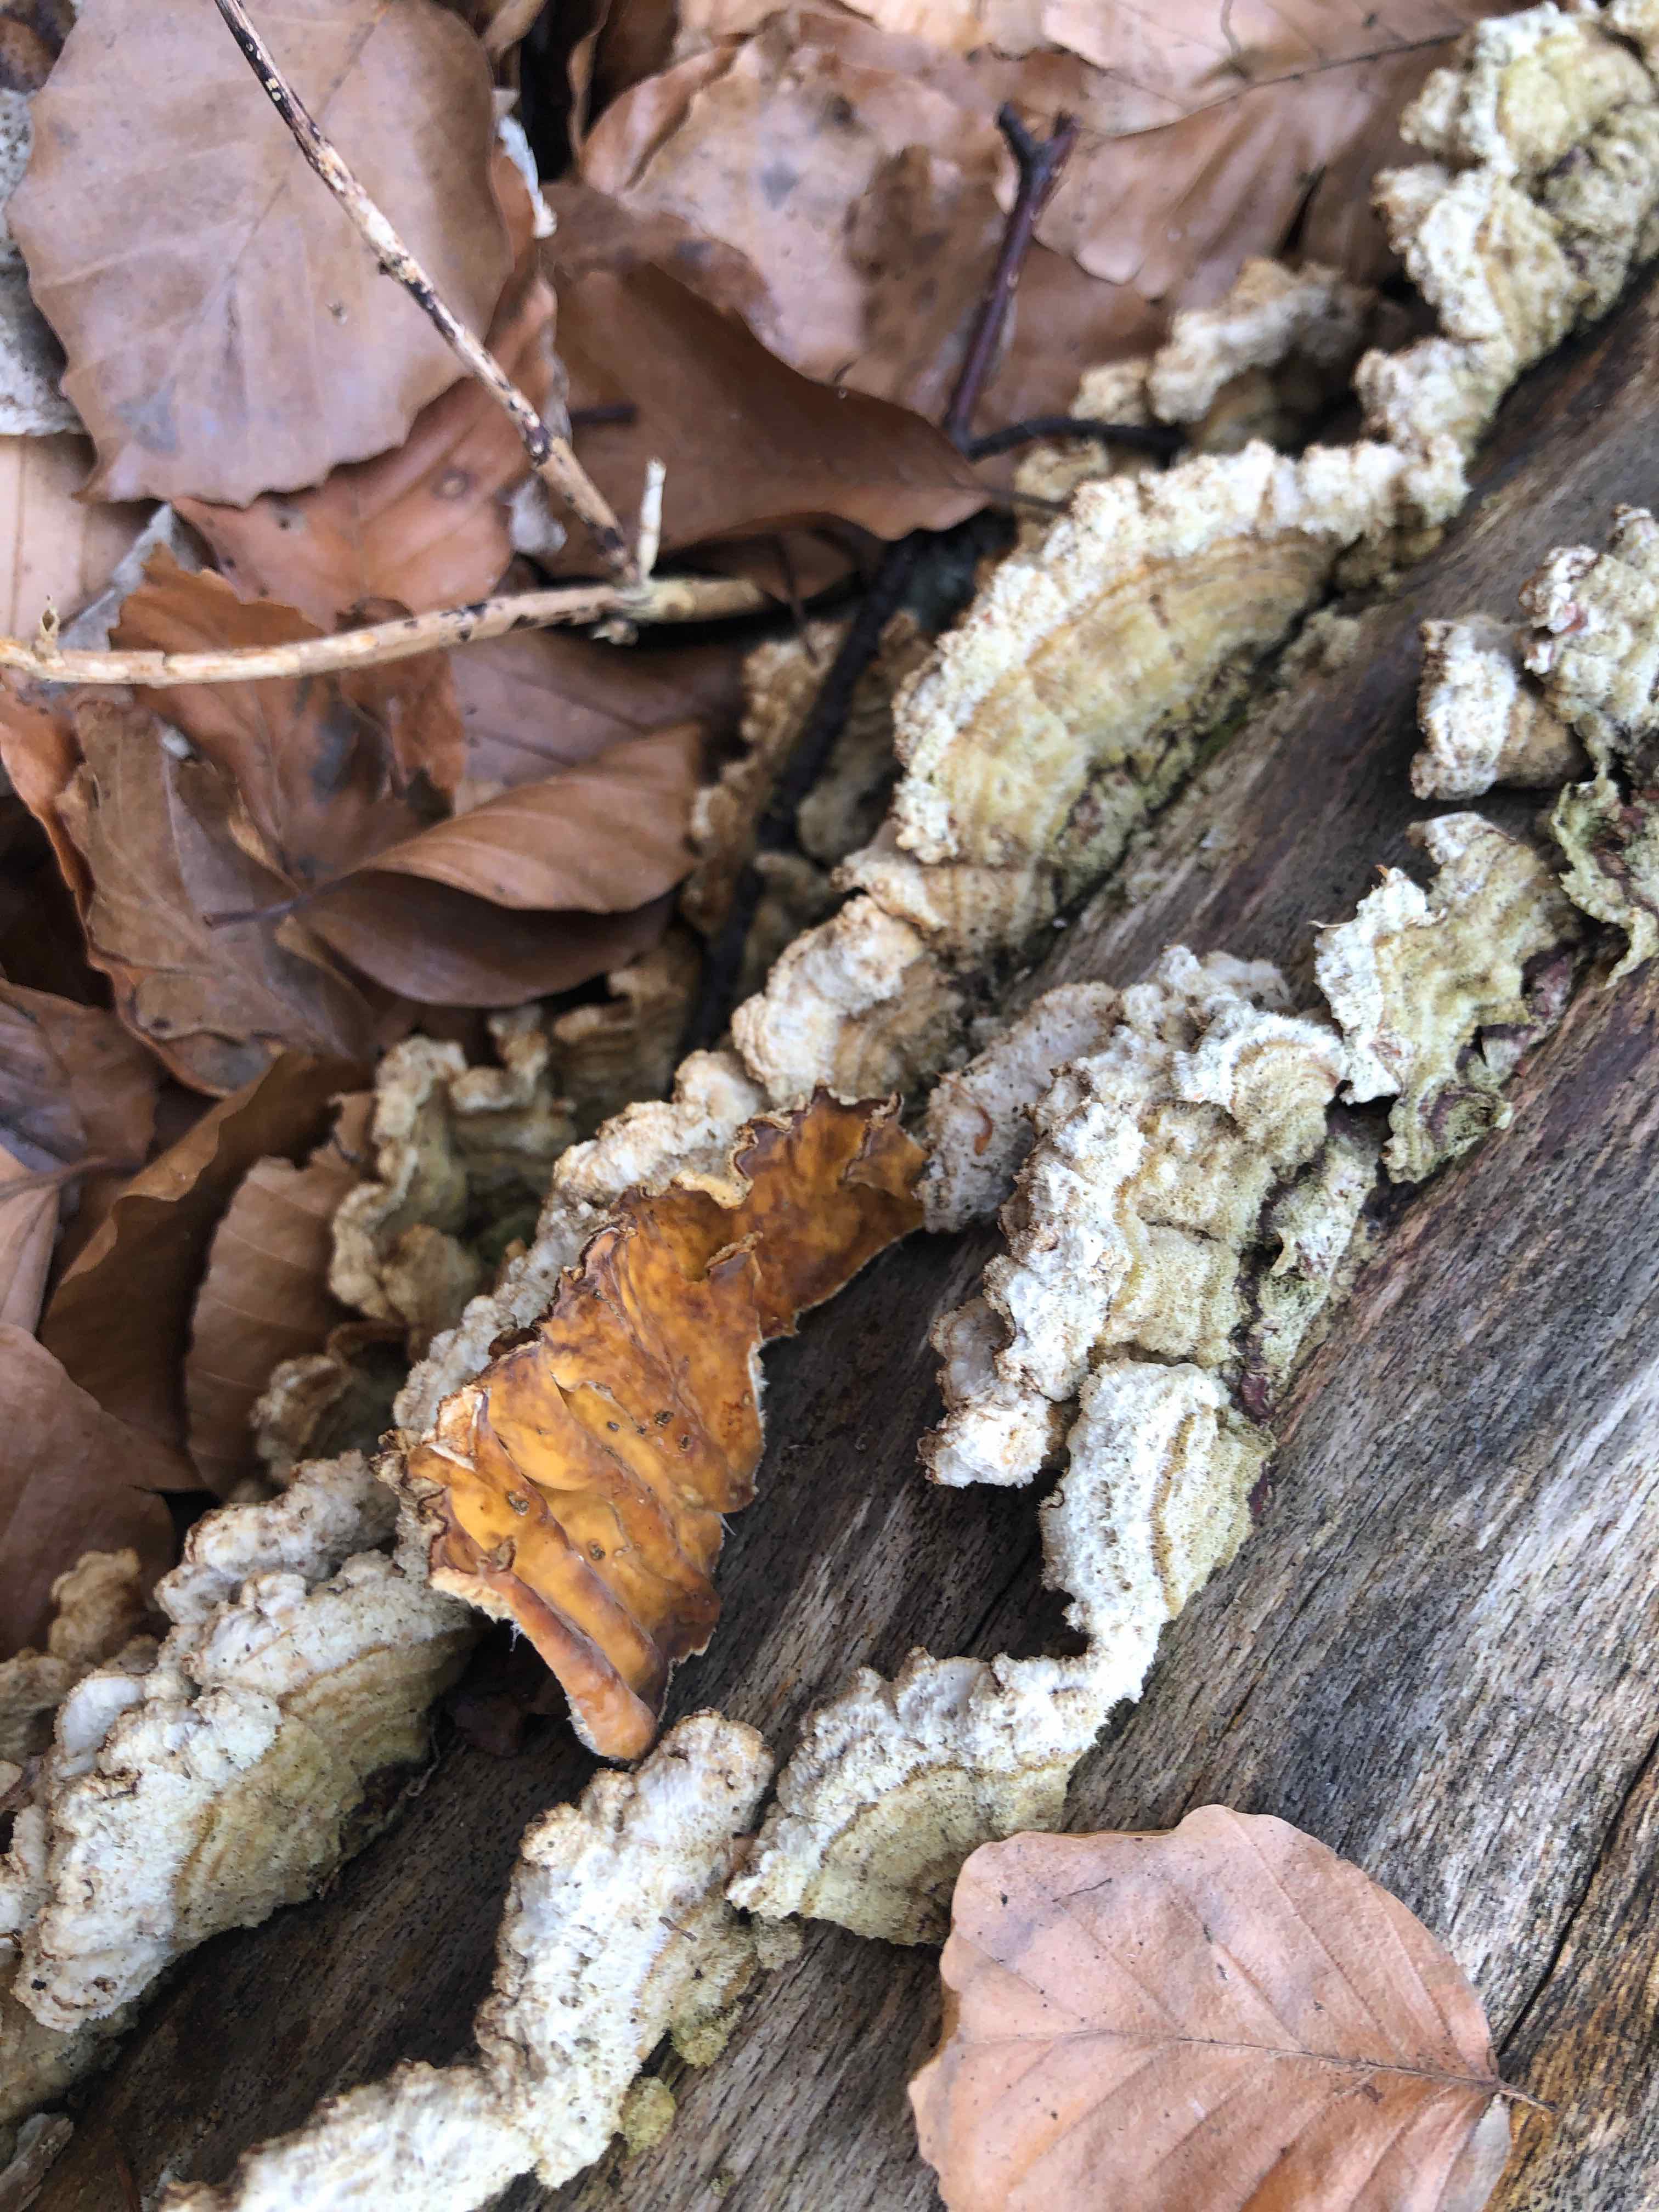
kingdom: Fungi
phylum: Basidiomycota
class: Agaricomycetes
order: Russulales
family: Stereaceae
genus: Stereum
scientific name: Stereum hirsutum
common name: håret lædersvamp
